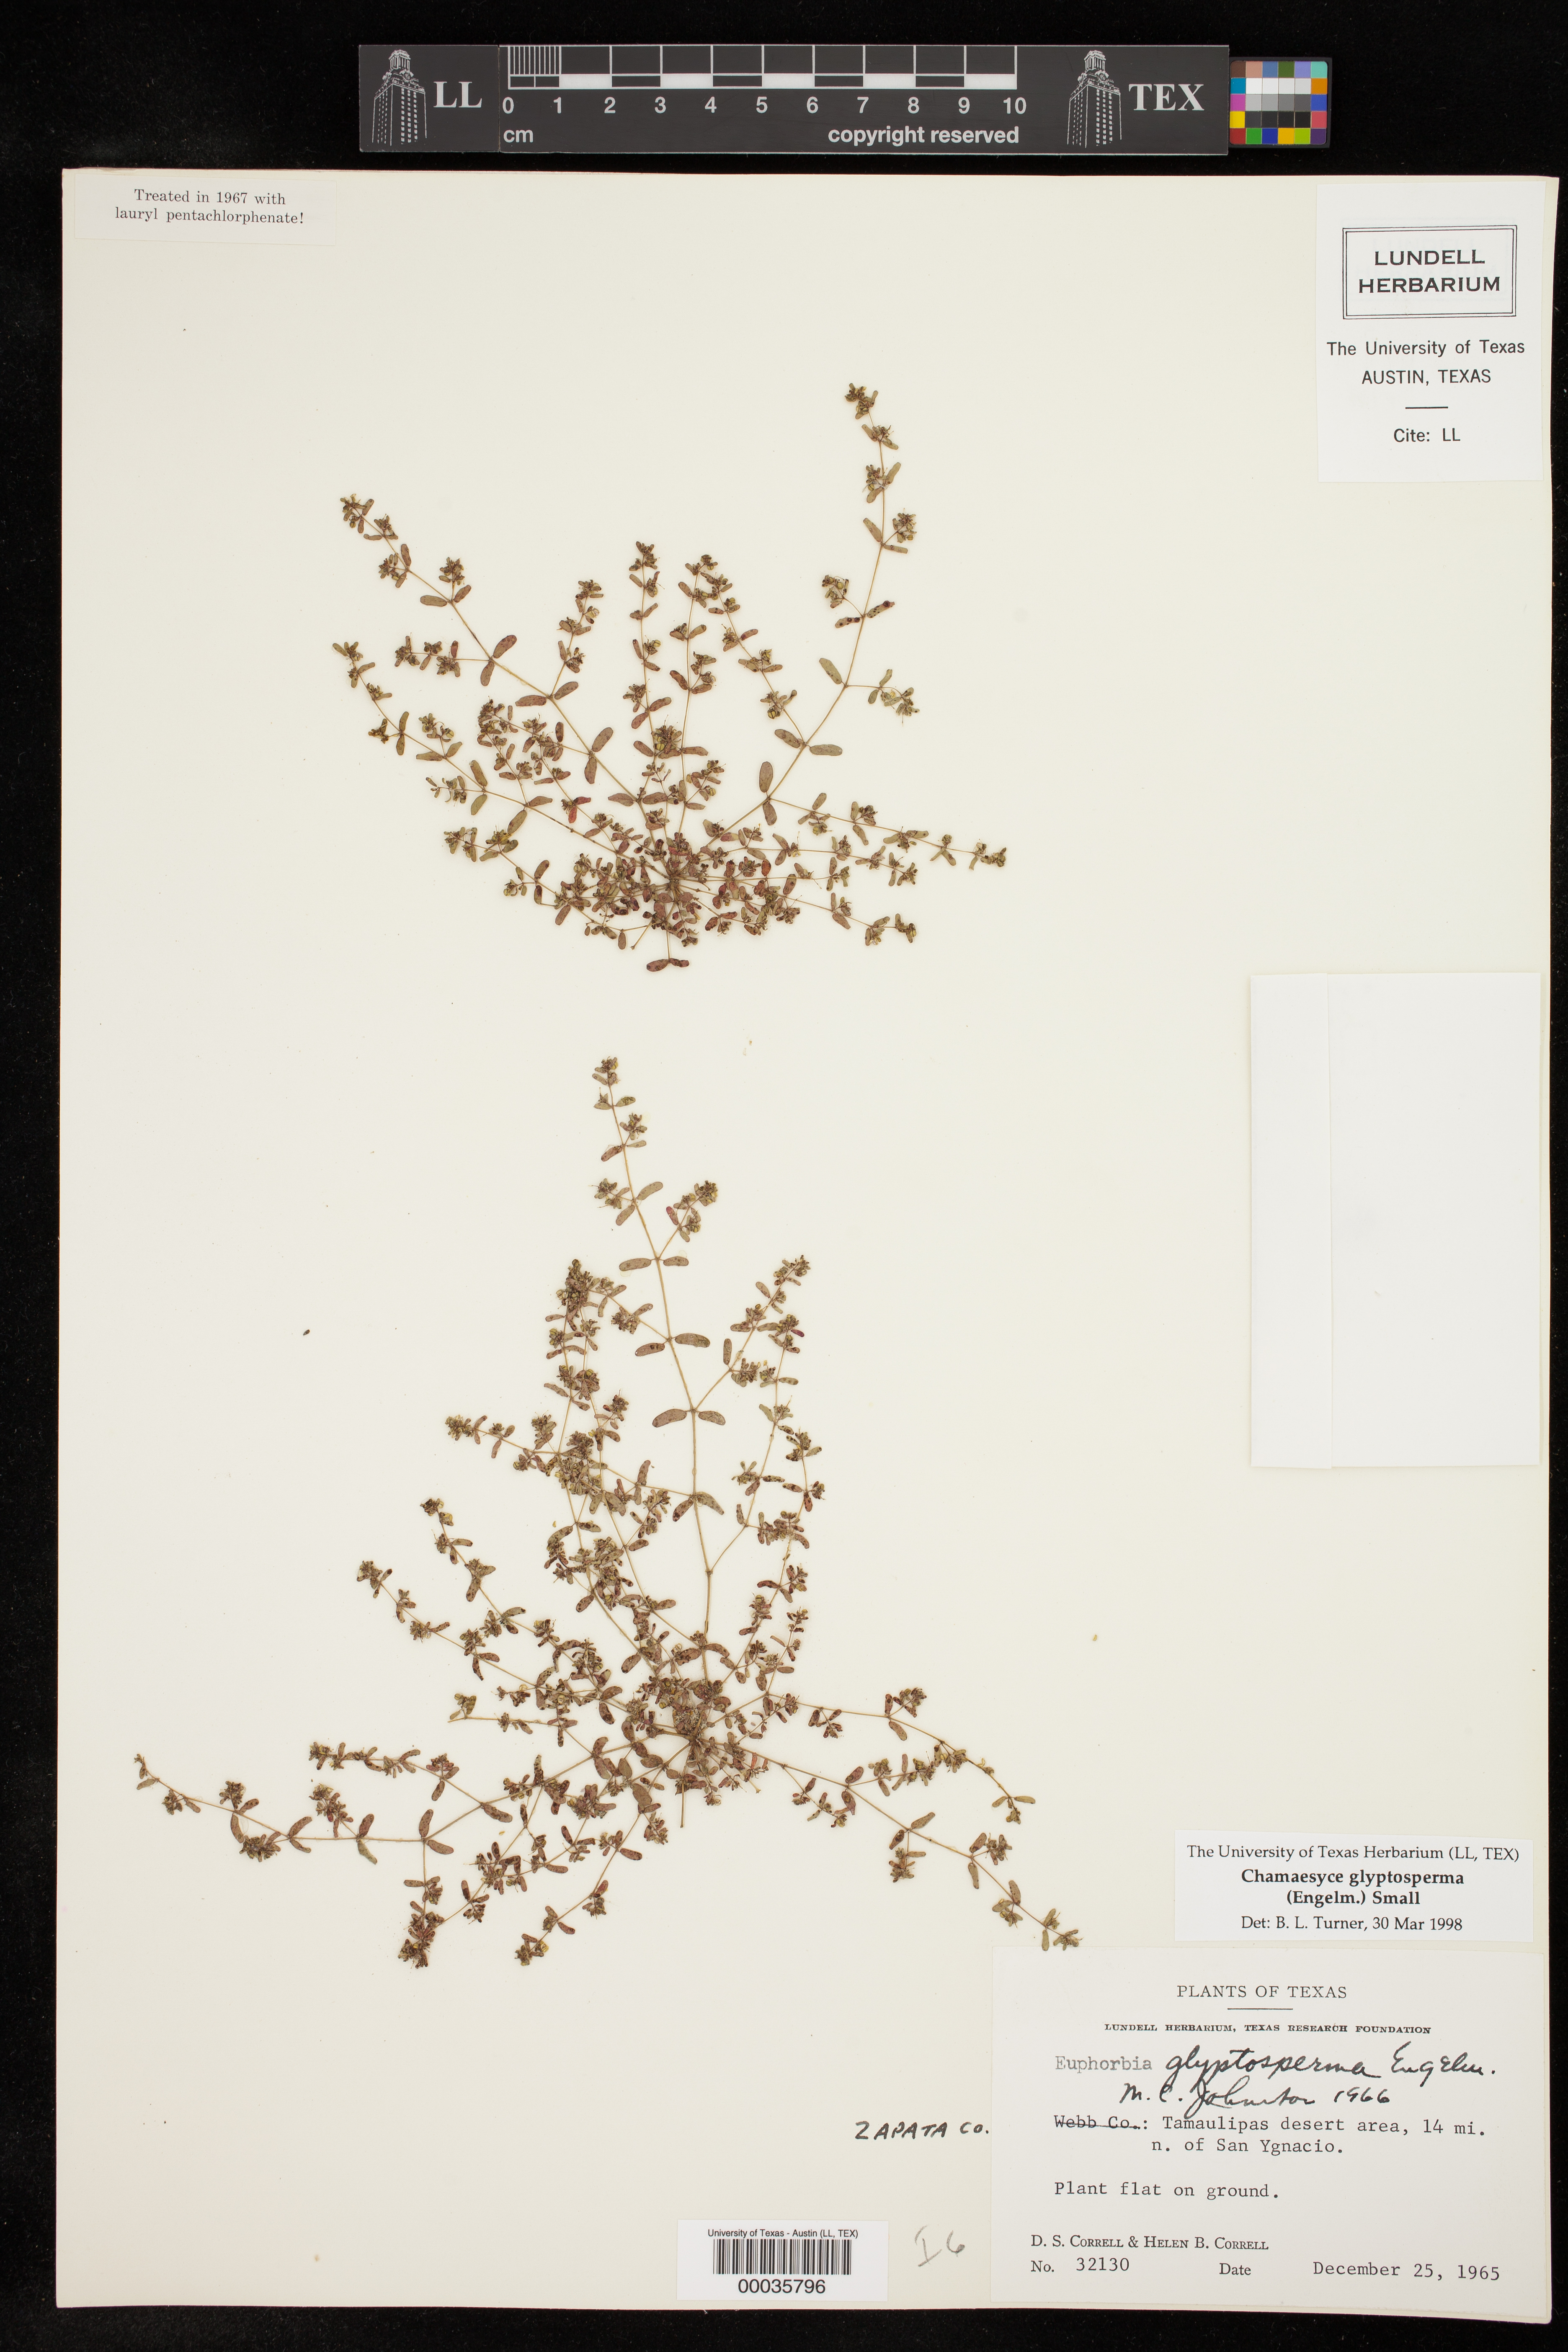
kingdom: Plantae
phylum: Tracheophyta
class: Magnoliopsida
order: Malpighiales
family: Euphorbiaceae
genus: Euphorbia
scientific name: Euphorbia glyptosperma
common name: Corrugate-seeded spurge
